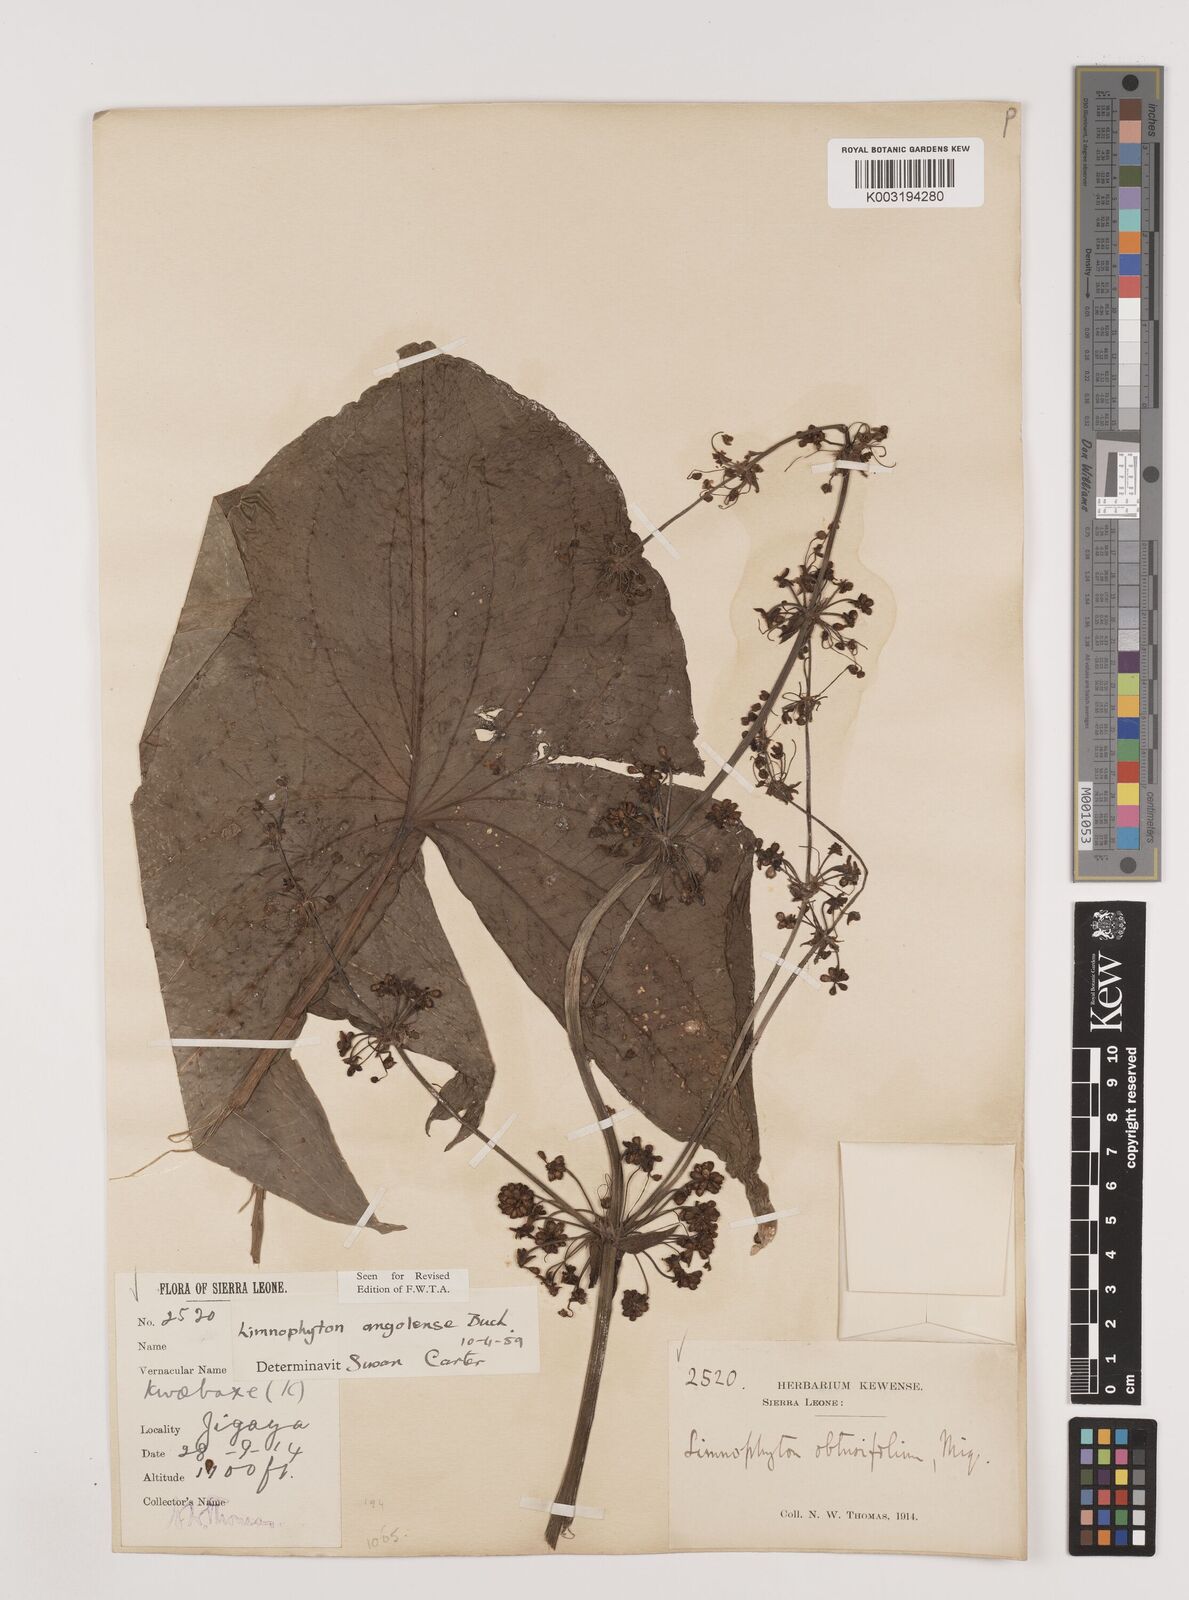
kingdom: Plantae
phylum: Tracheophyta
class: Liliopsida
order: Alismatales
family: Alismataceae
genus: Limnophyton
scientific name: Limnophyton angolense
